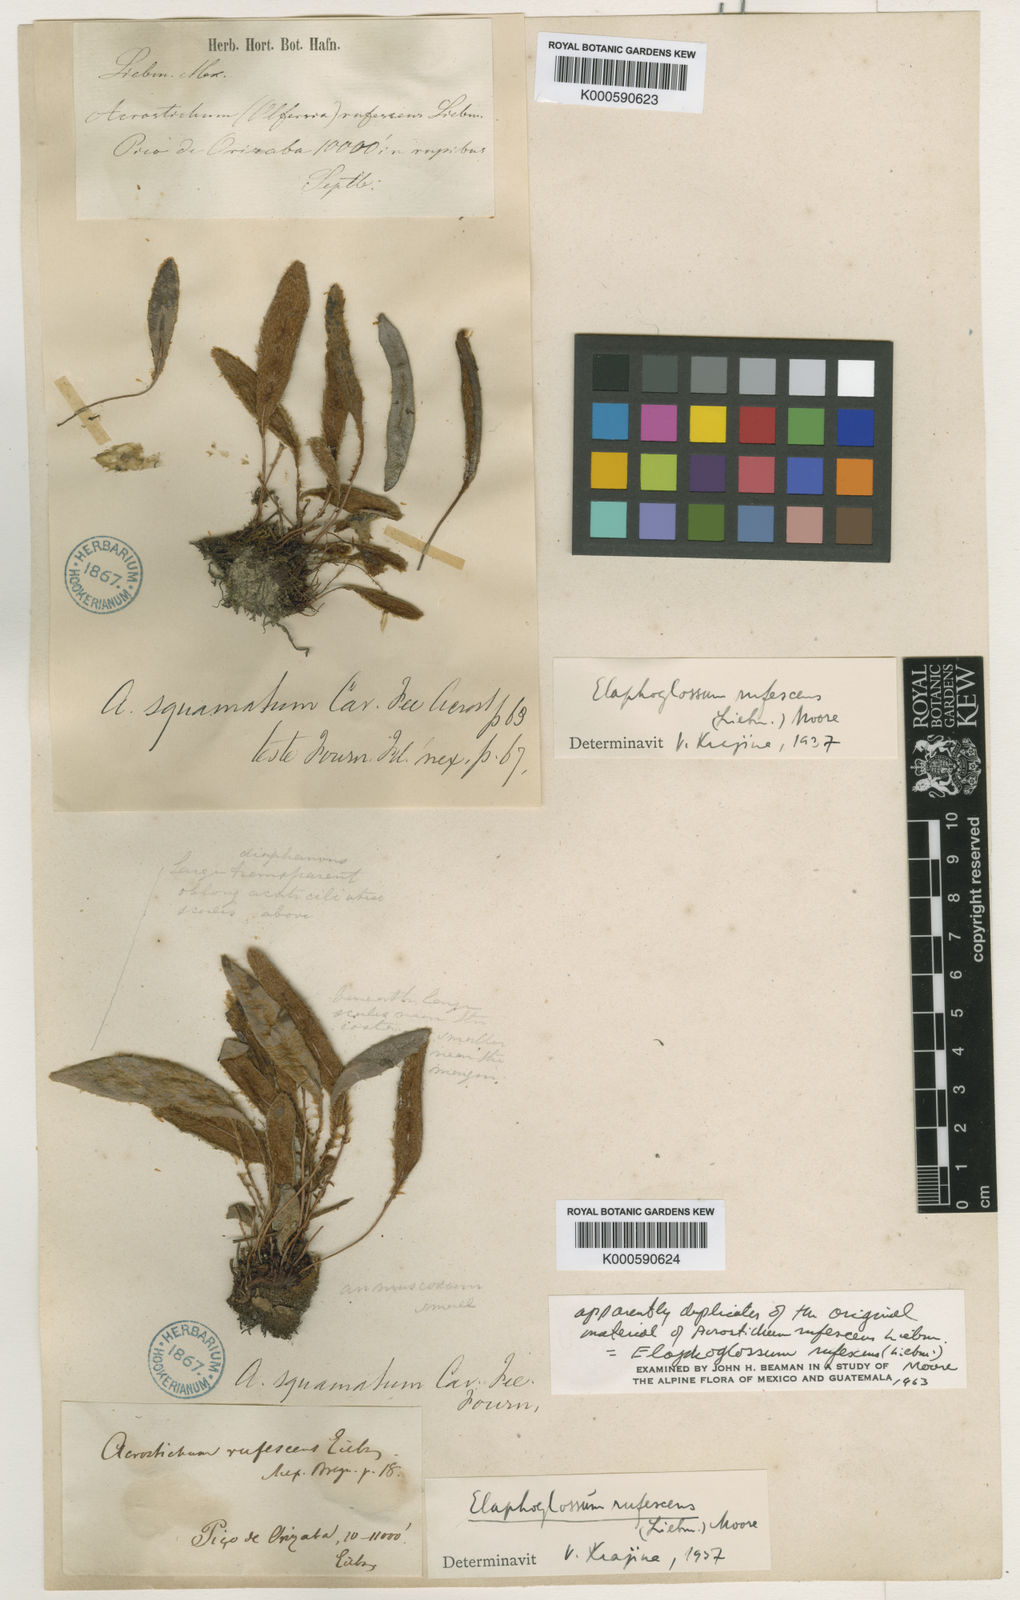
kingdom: Plantae
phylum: Tracheophyta
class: Polypodiopsida
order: Polypodiales
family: Dryopteridaceae
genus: Elaphoglossum
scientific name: Elaphoglossum rufescens
